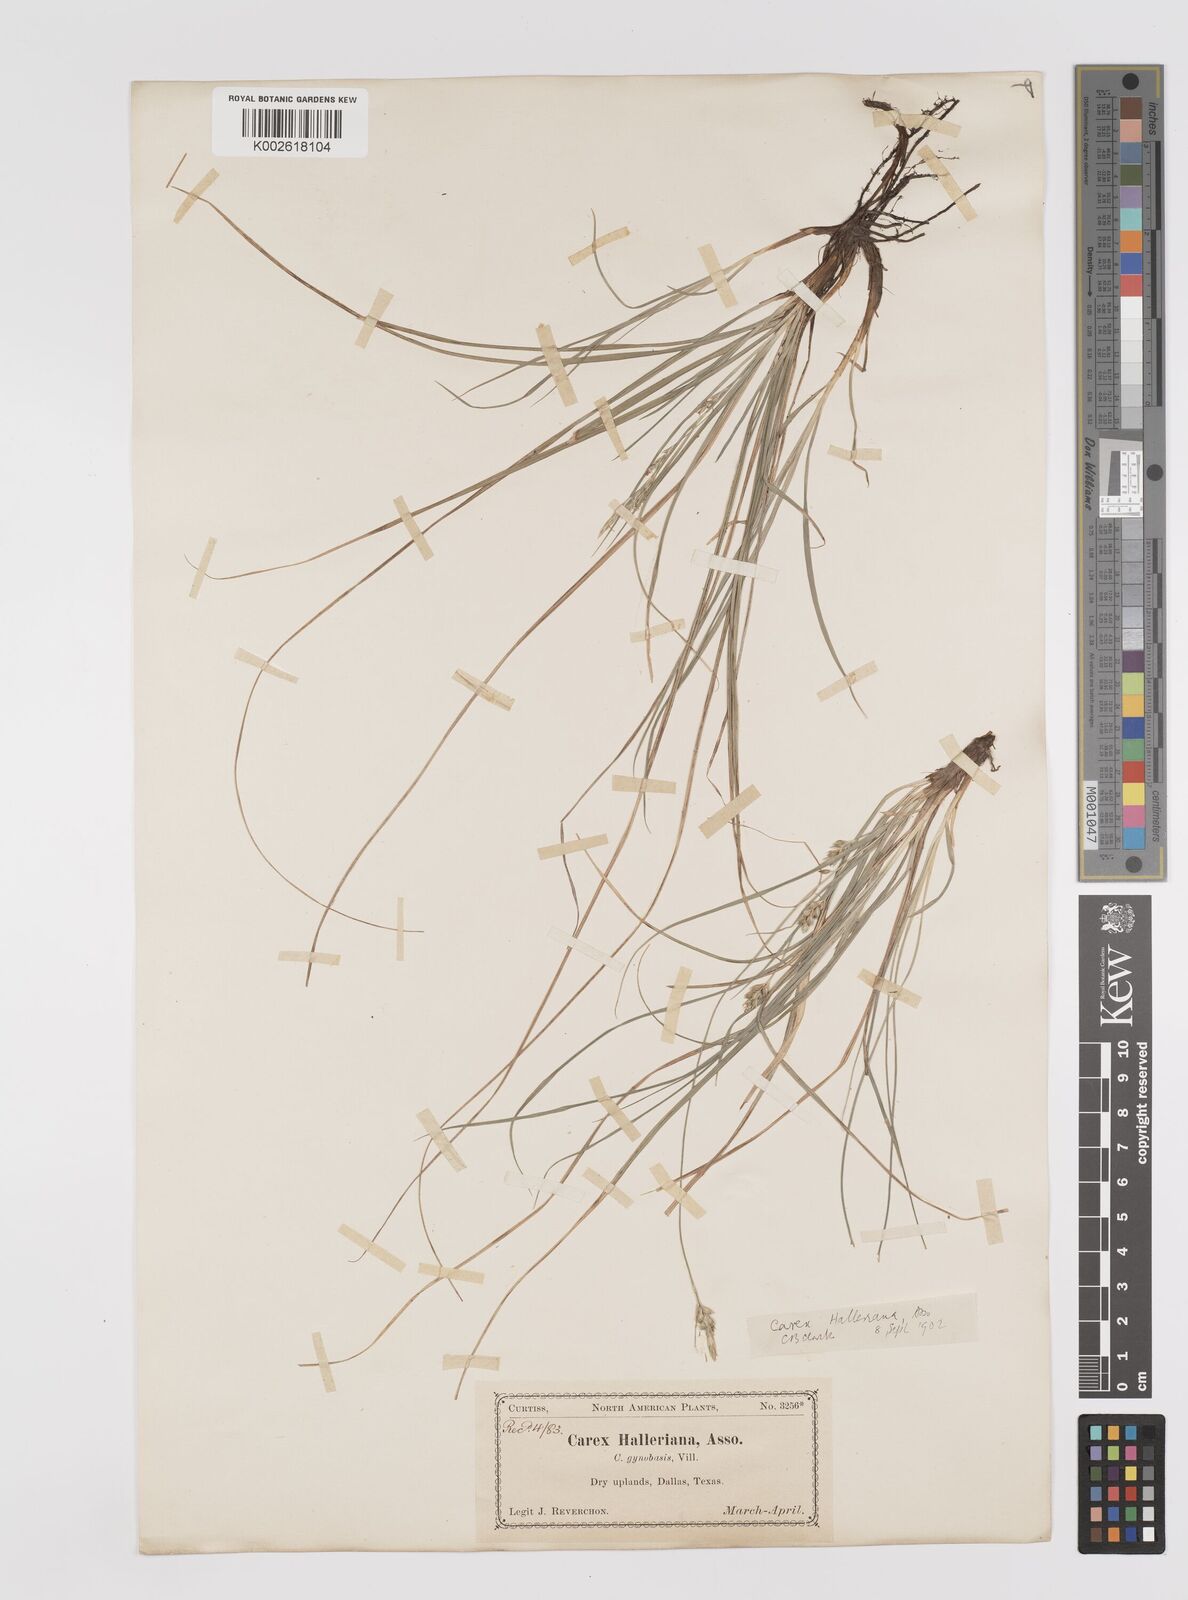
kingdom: Plantae
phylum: Tracheophyta
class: Liliopsida
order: Poales
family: Cyperaceae
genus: Carex
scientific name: Carex planostachys
